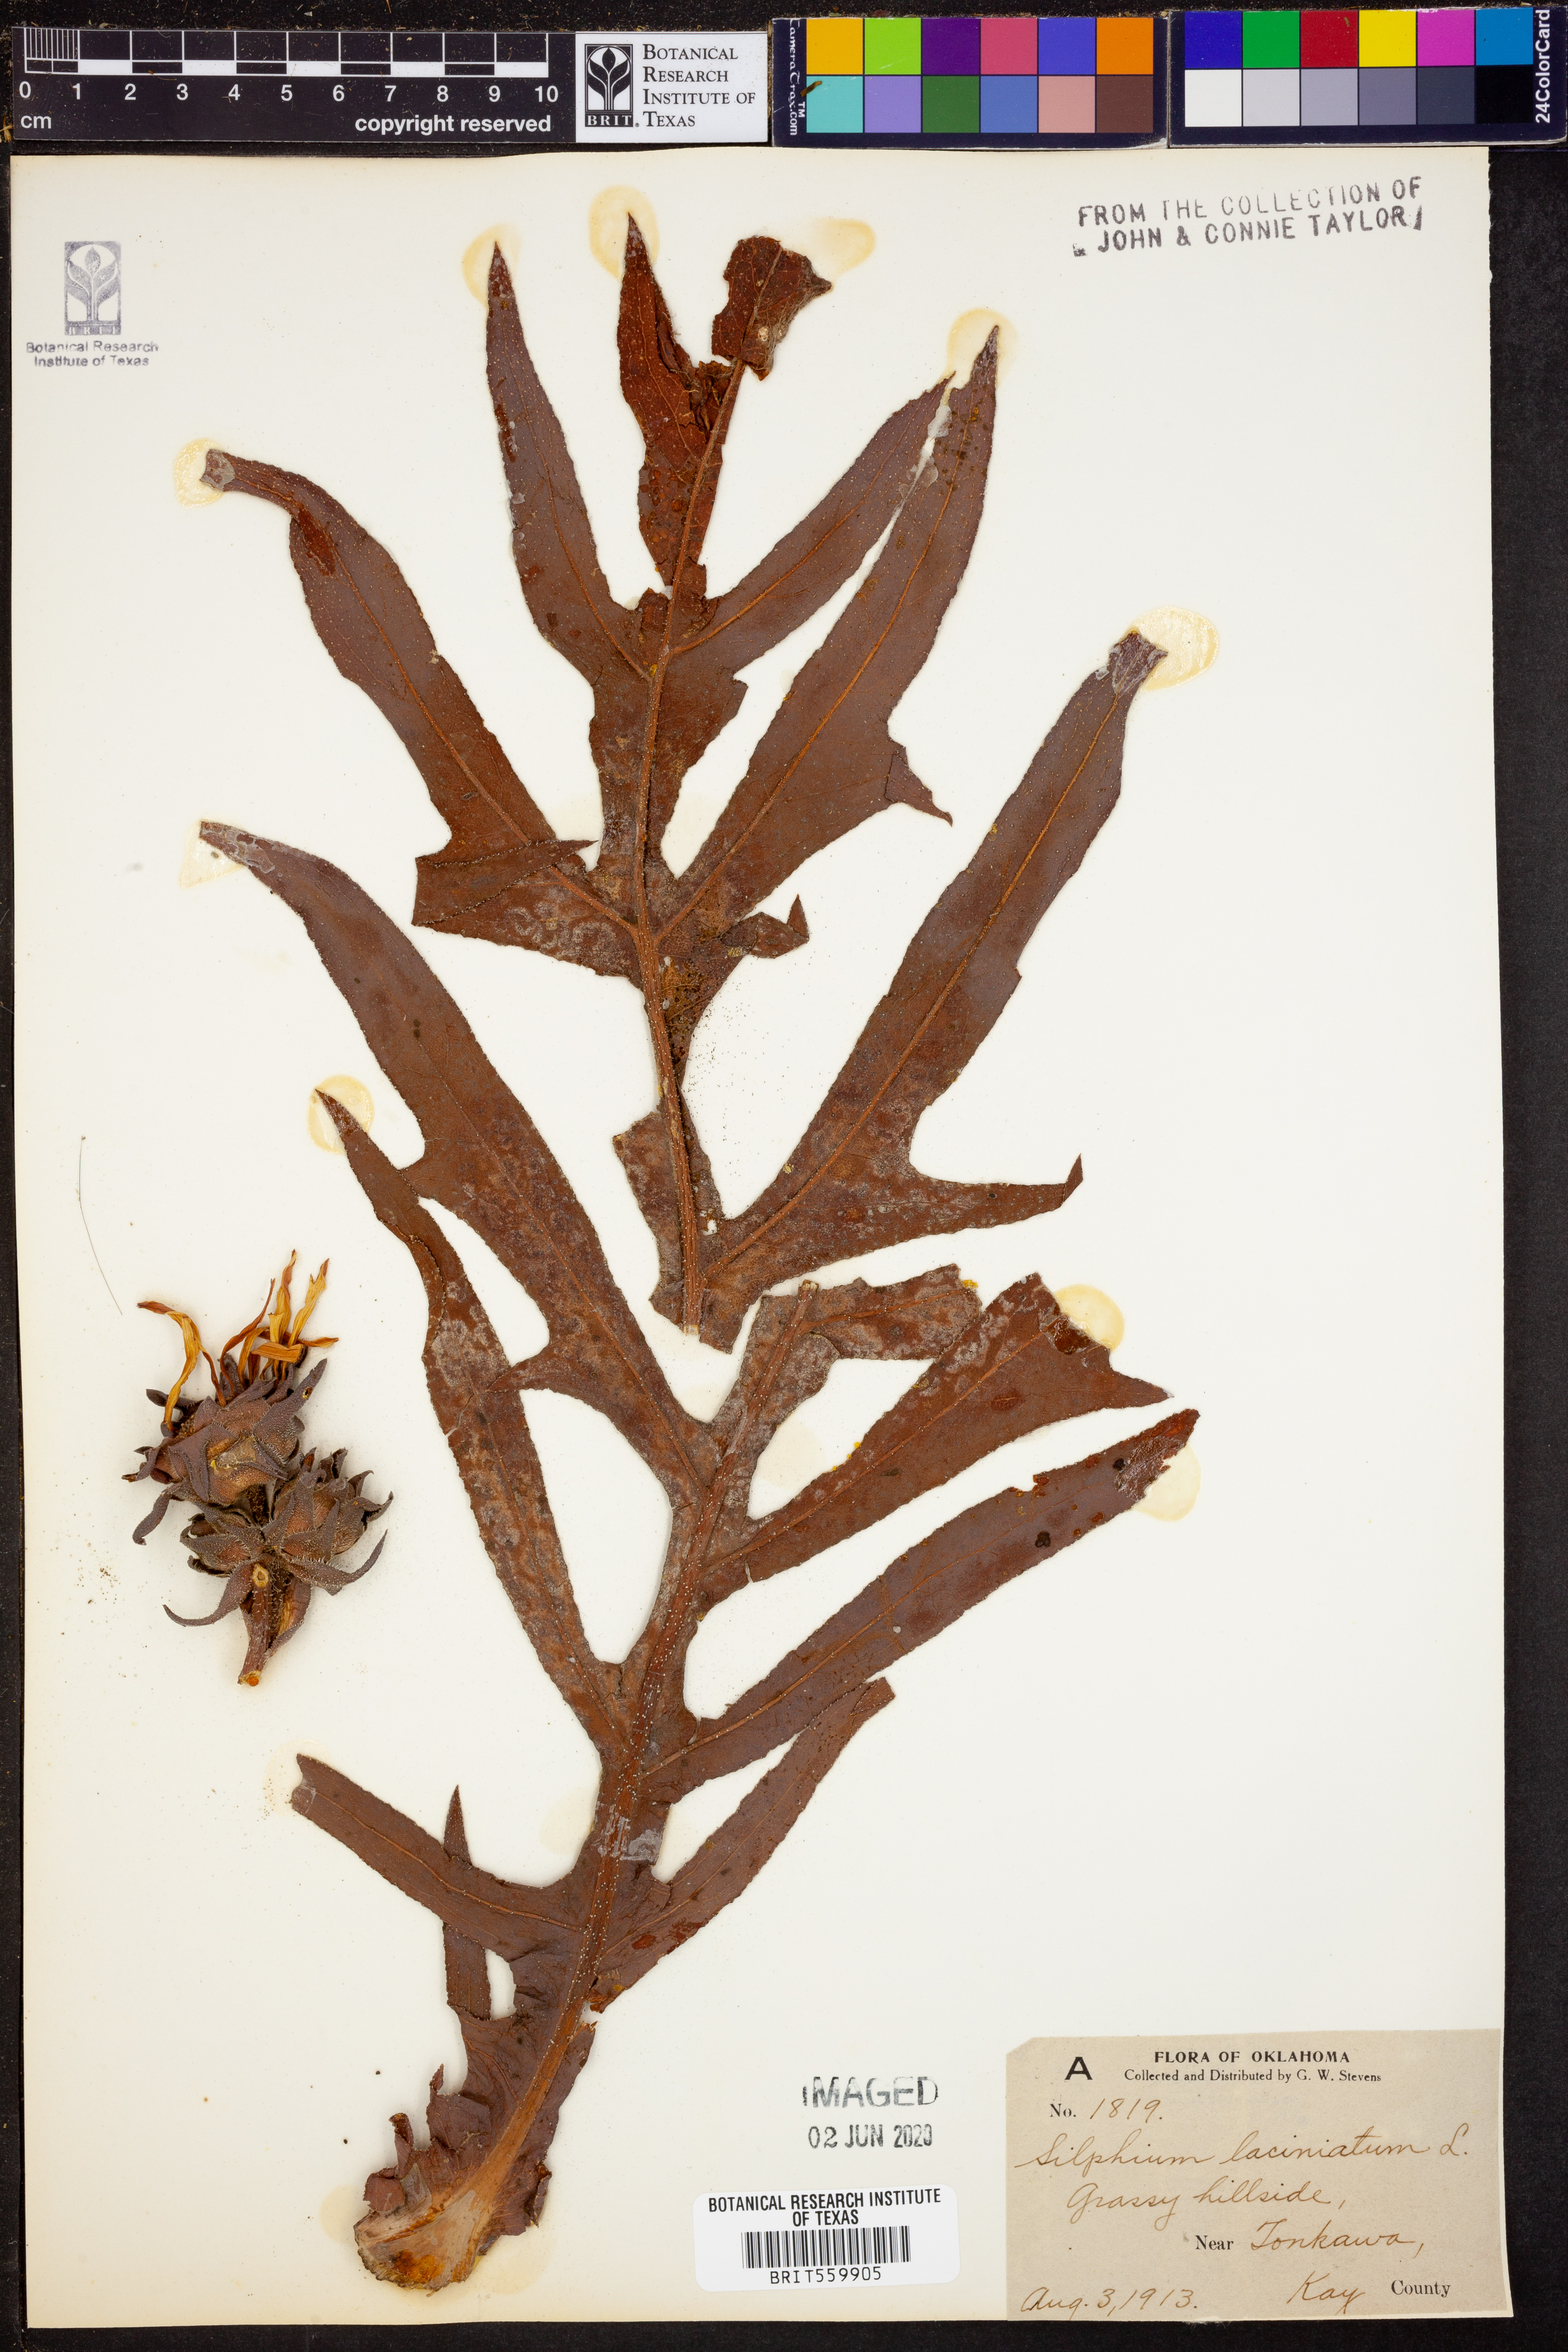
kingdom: Plantae
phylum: Tracheophyta
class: Magnoliopsida
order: Asterales
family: Asteraceae
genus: Silphium
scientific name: Silphium laciniatum
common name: Polarplant
